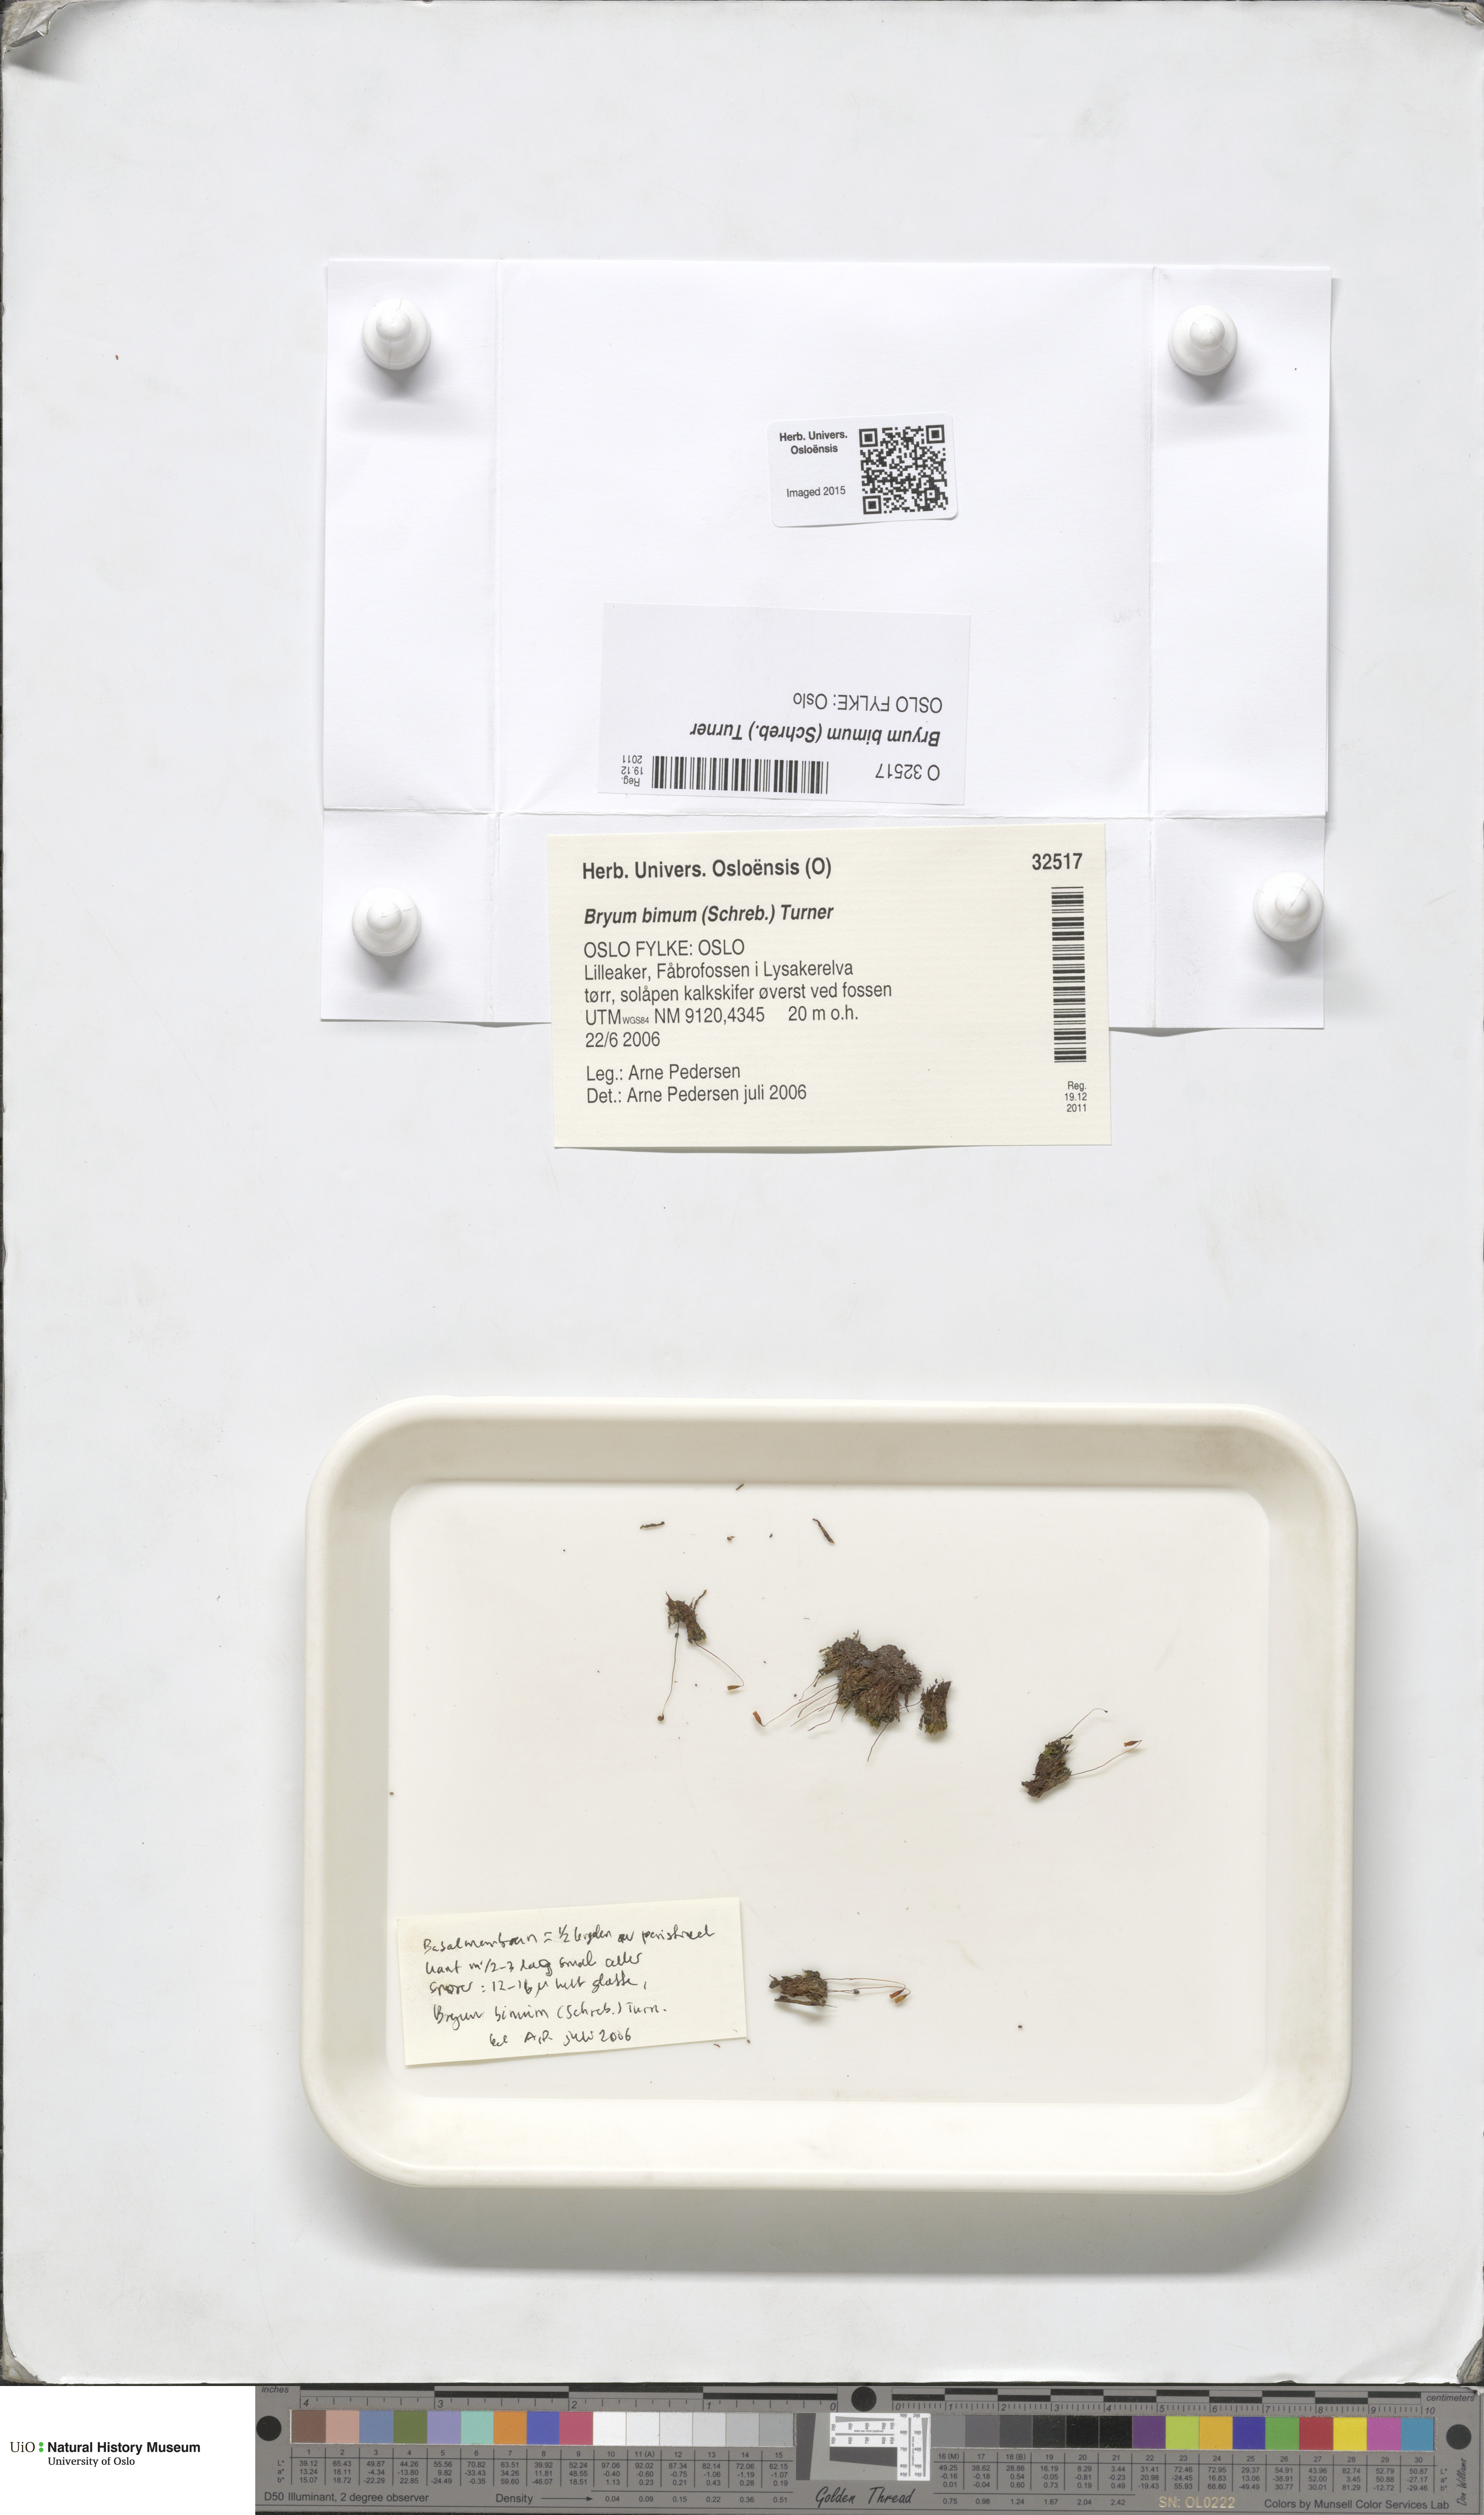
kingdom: Plantae
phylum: Bryophyta
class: Bryopsida
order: Bryales
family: Bryaceae
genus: Ptychostomum
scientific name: Ptychostomum bimum
